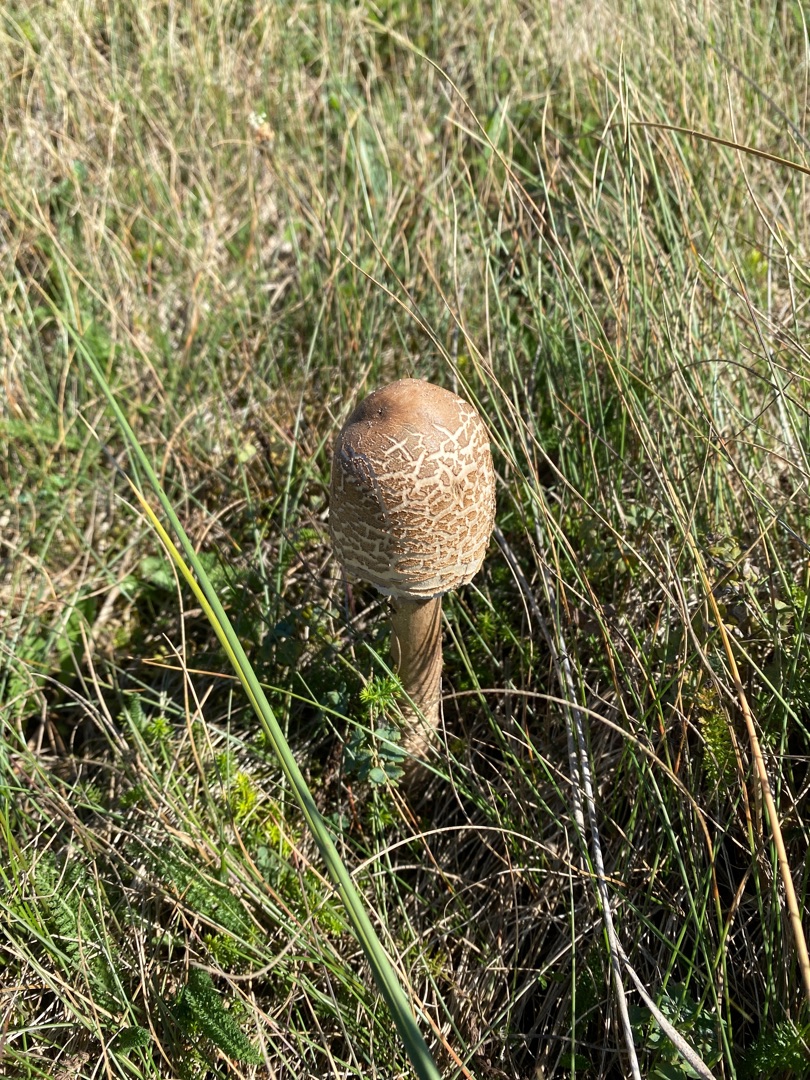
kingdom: Fungi
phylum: Basidiomycota
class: Agaricomycetes
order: Agaricales
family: Agaricaceae
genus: Macrolepiota
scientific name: Macrolepiota procera
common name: Stor kæmpeparasolhat
